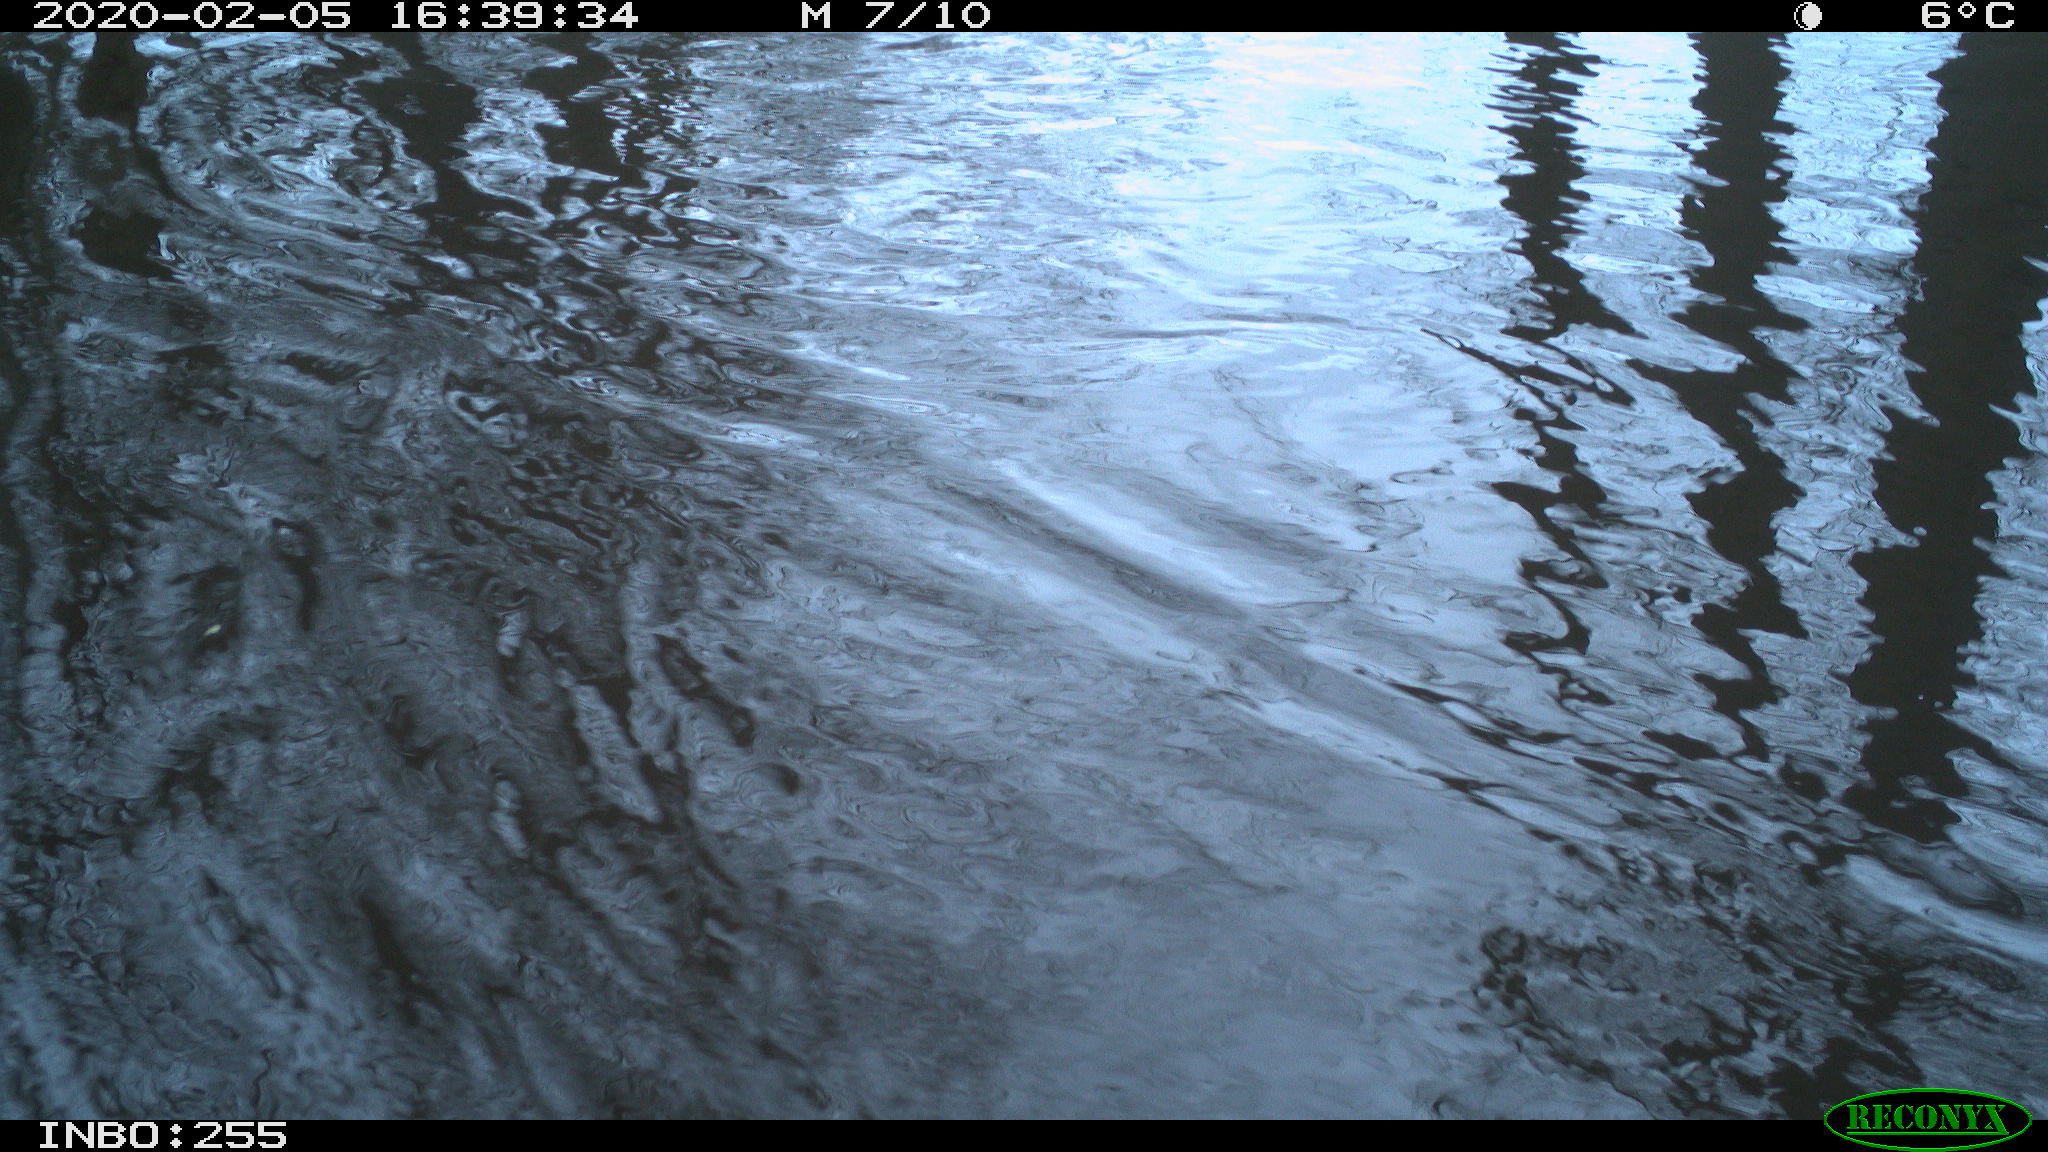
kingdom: Animalia
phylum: Chordata
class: Aves
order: Gruiformes
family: Rallidae
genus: Fulica
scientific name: Fulica atra
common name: Eurasian coot
